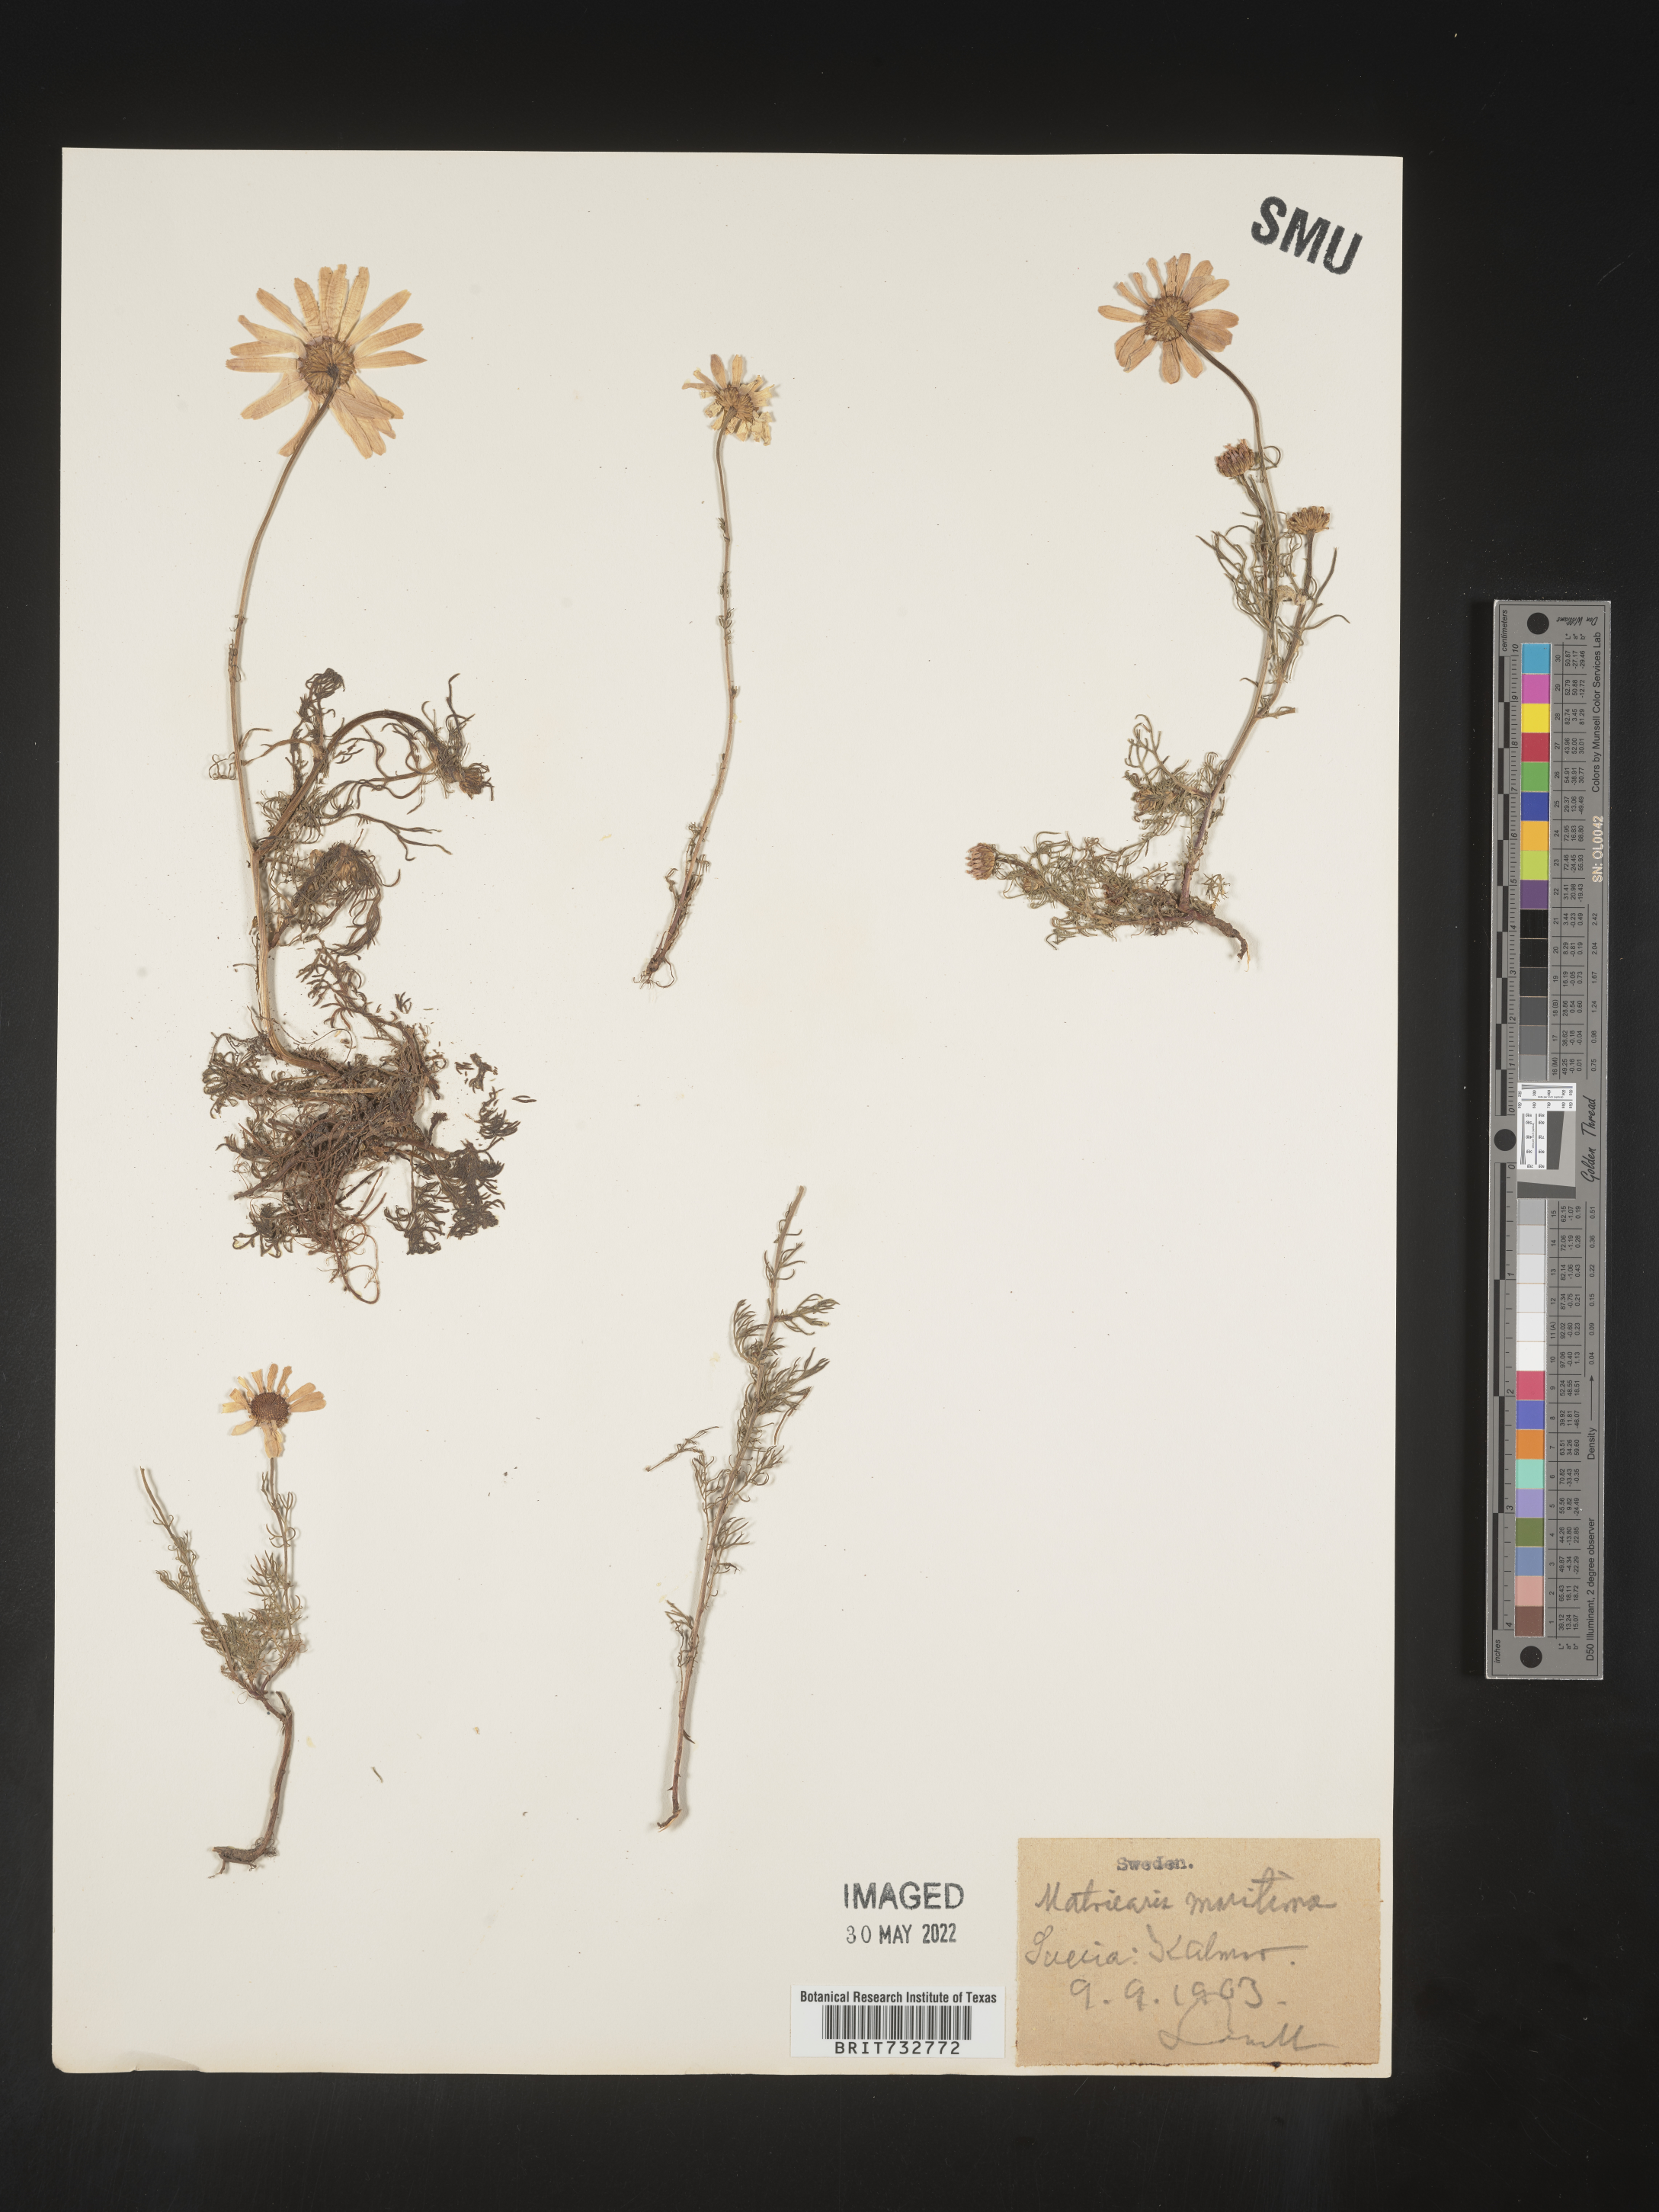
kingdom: Plantae
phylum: Tracheophyta
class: Magnoliopsida
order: Asterales
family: Asteraceae
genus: Matricaria
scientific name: Matricaria
